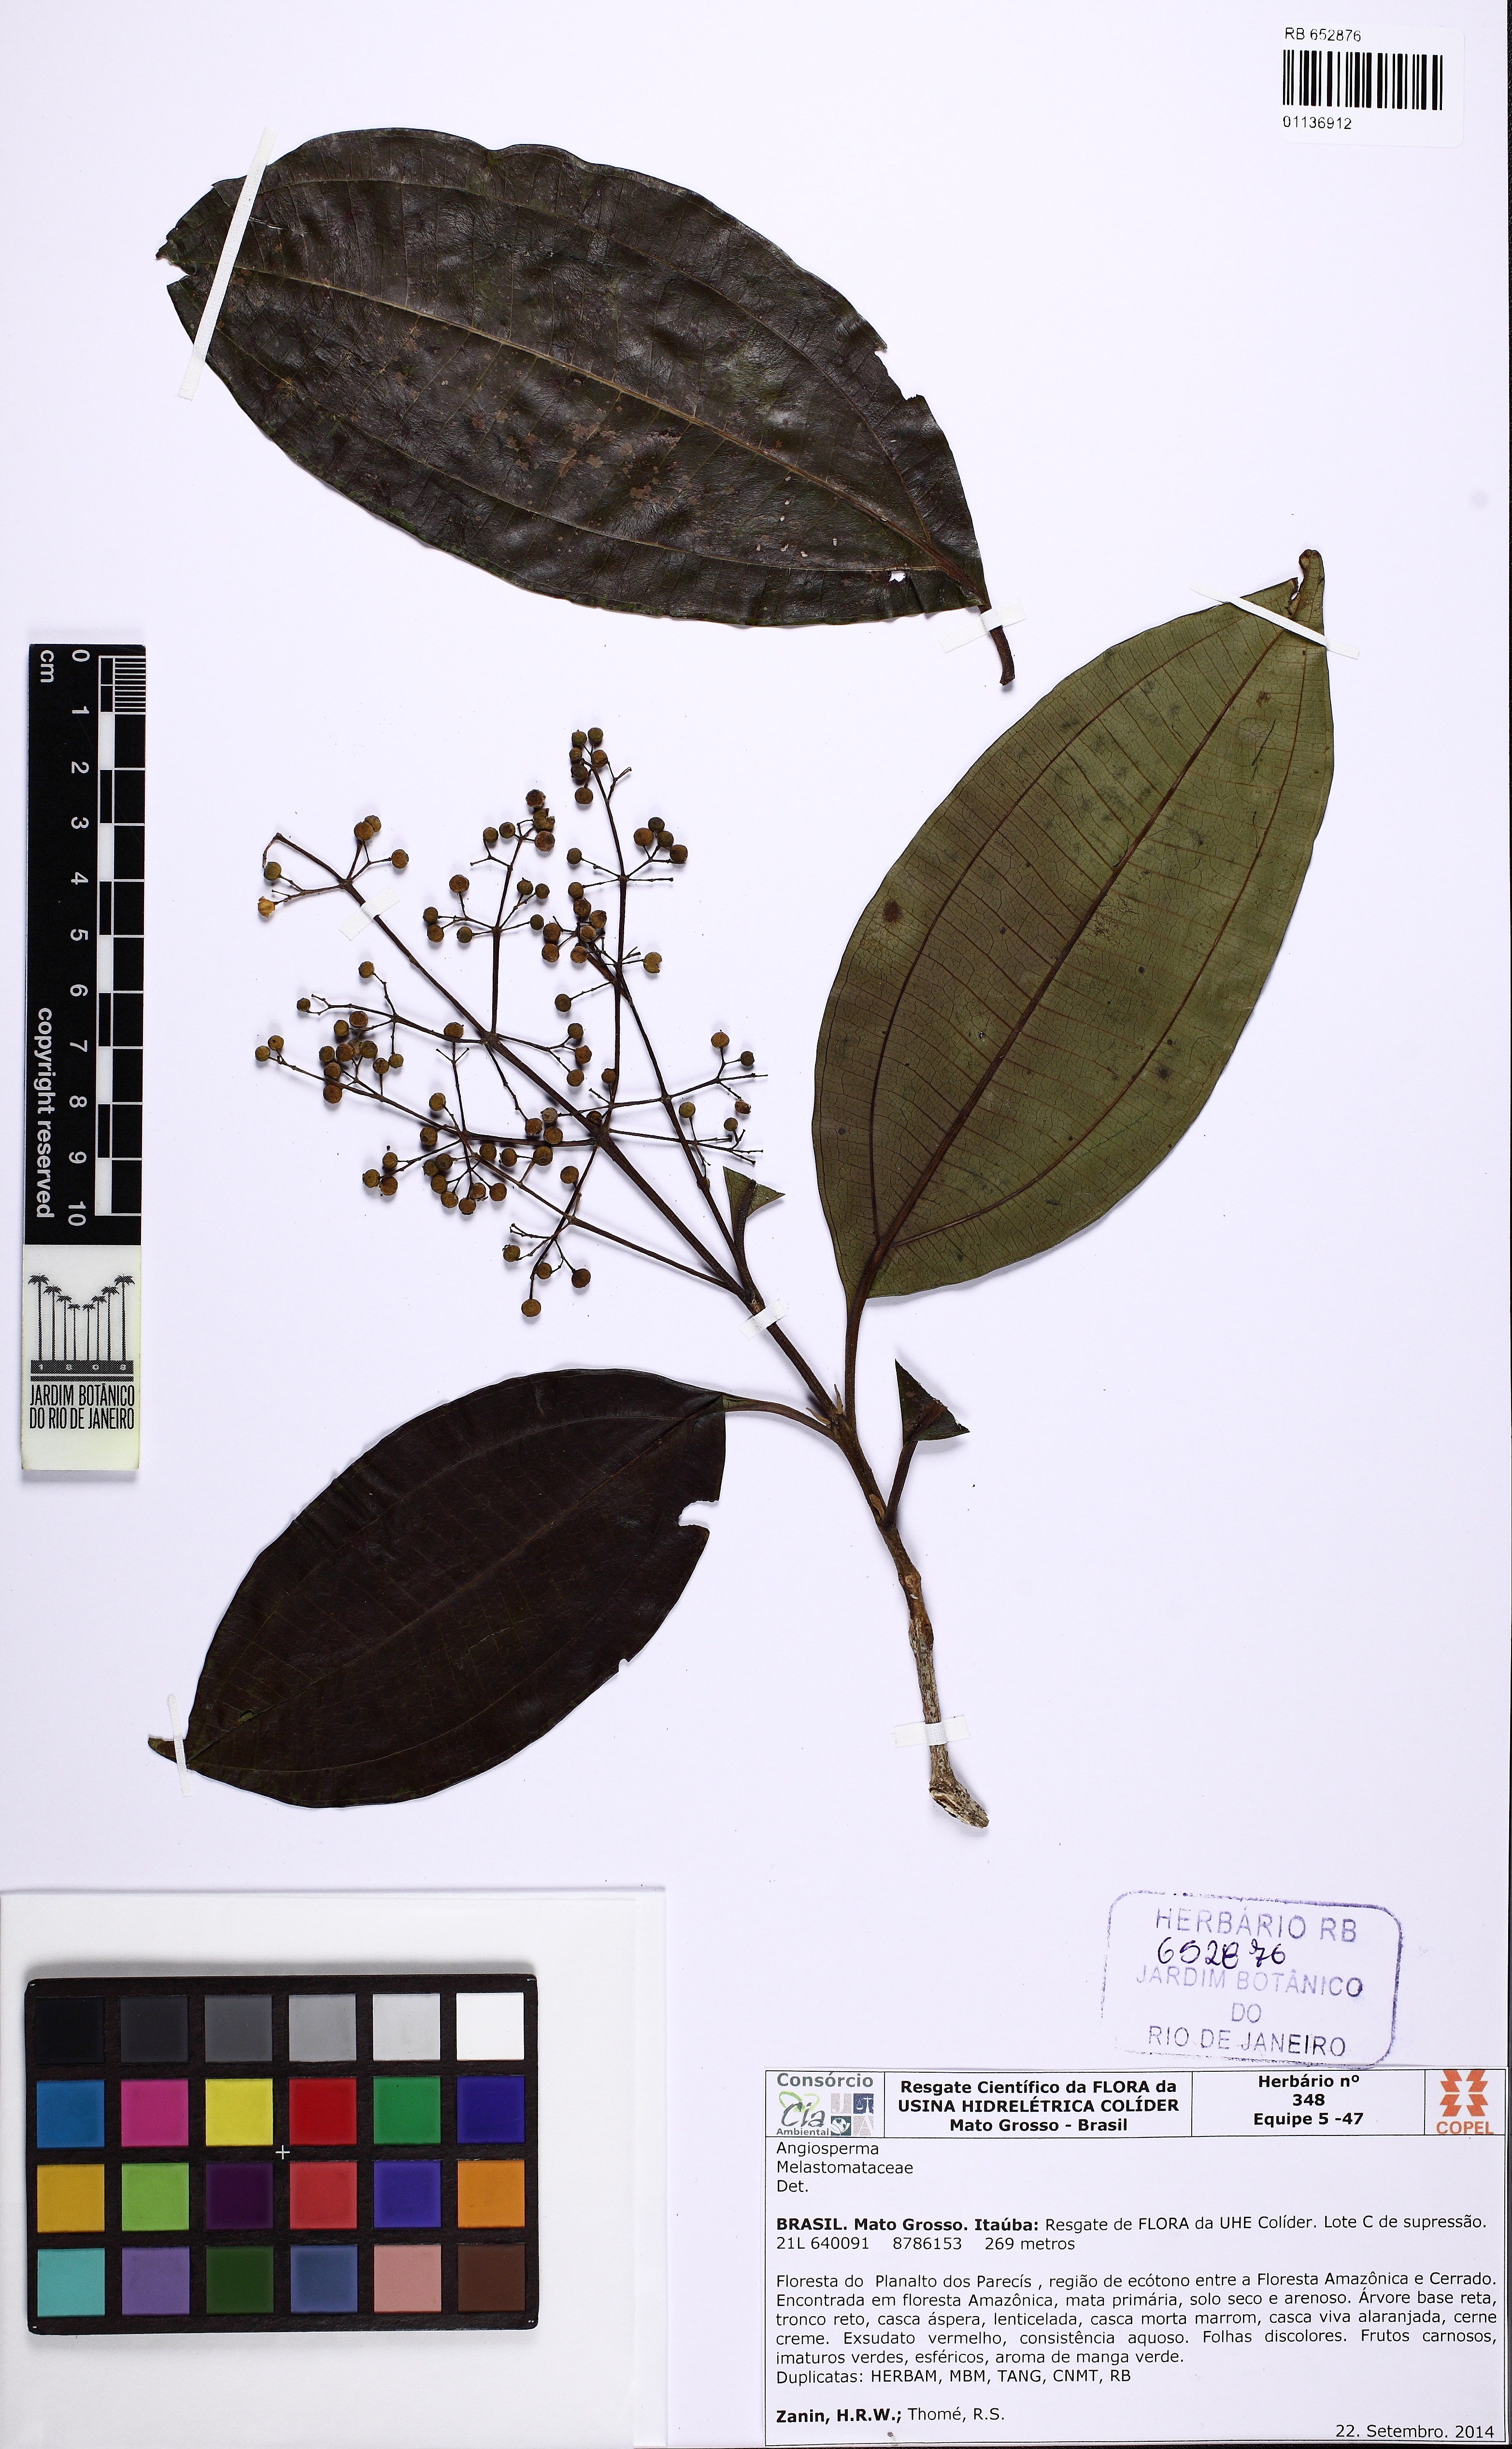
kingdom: Plantae
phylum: Tracheophyta
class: Magnoliopsida
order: Myrtales
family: Melastomataceae
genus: Miconia
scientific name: Miconia
